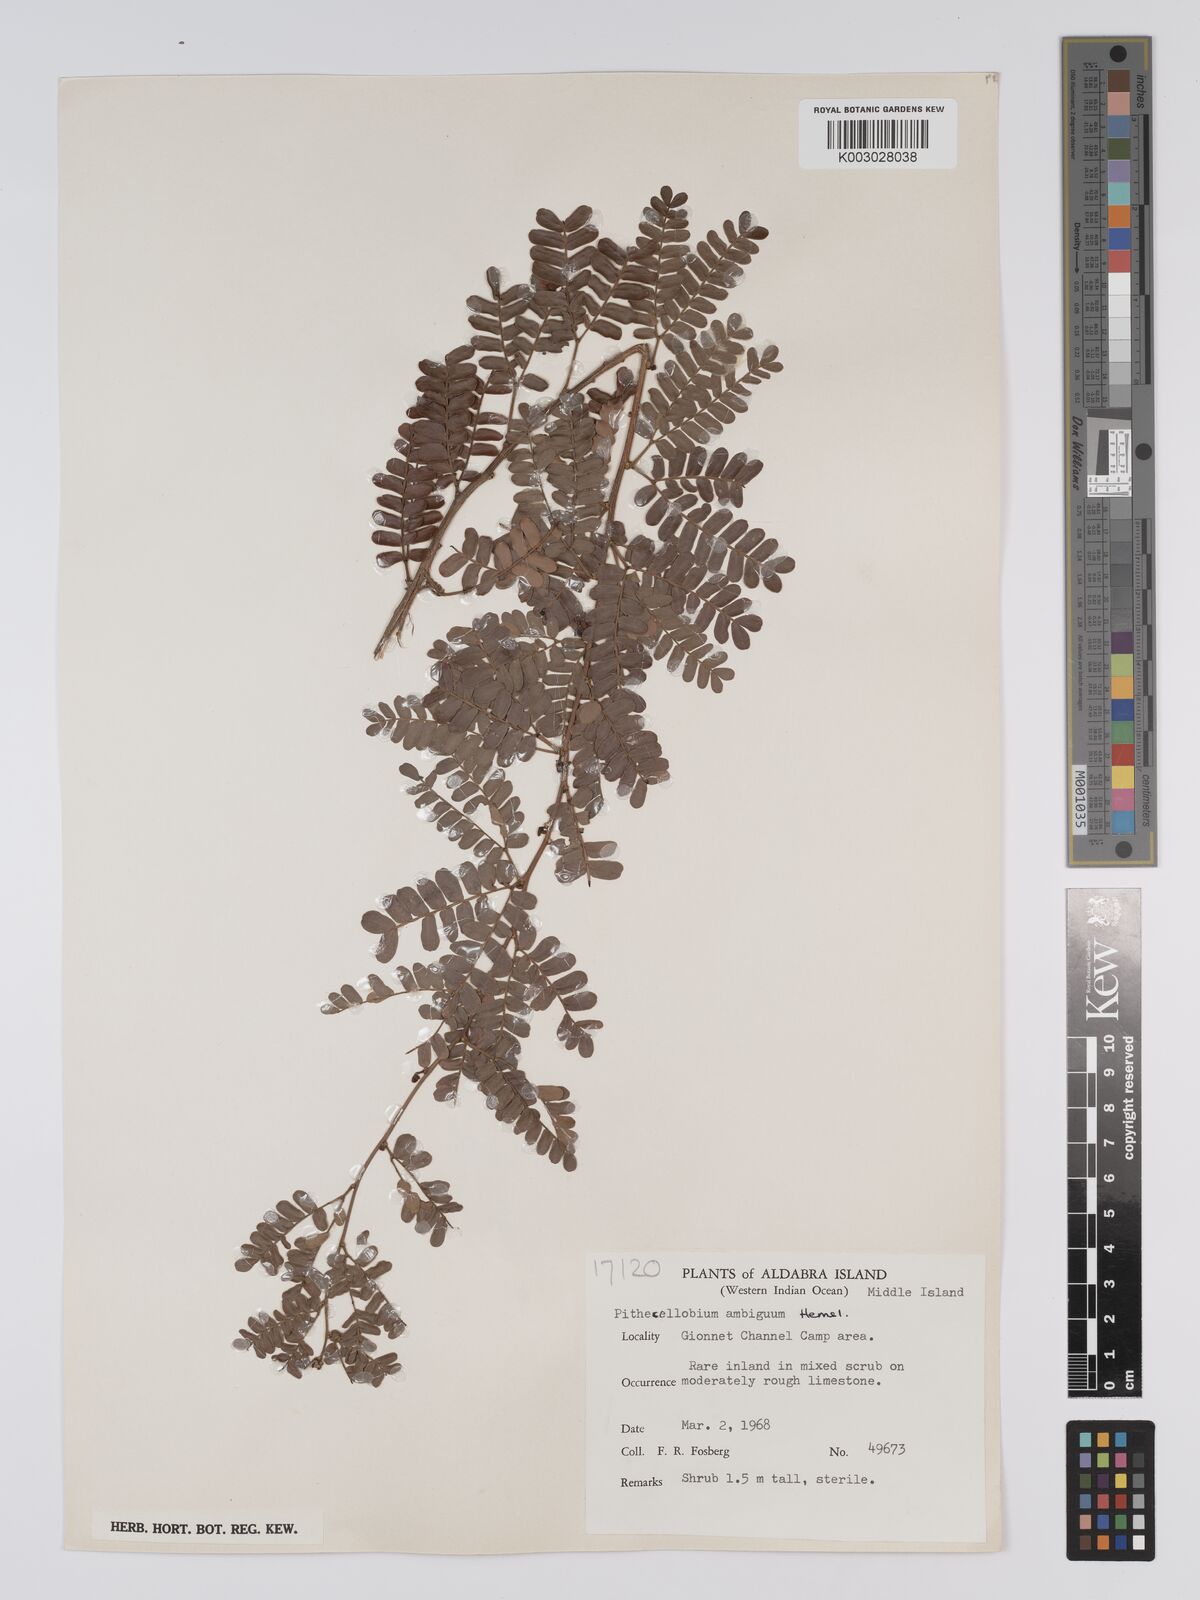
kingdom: Plantae
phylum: Tracheophyta
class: Magnoliopsida
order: Fabales
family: Fabaceae
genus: Viguieranthus
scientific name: Viguieranthus alternans
